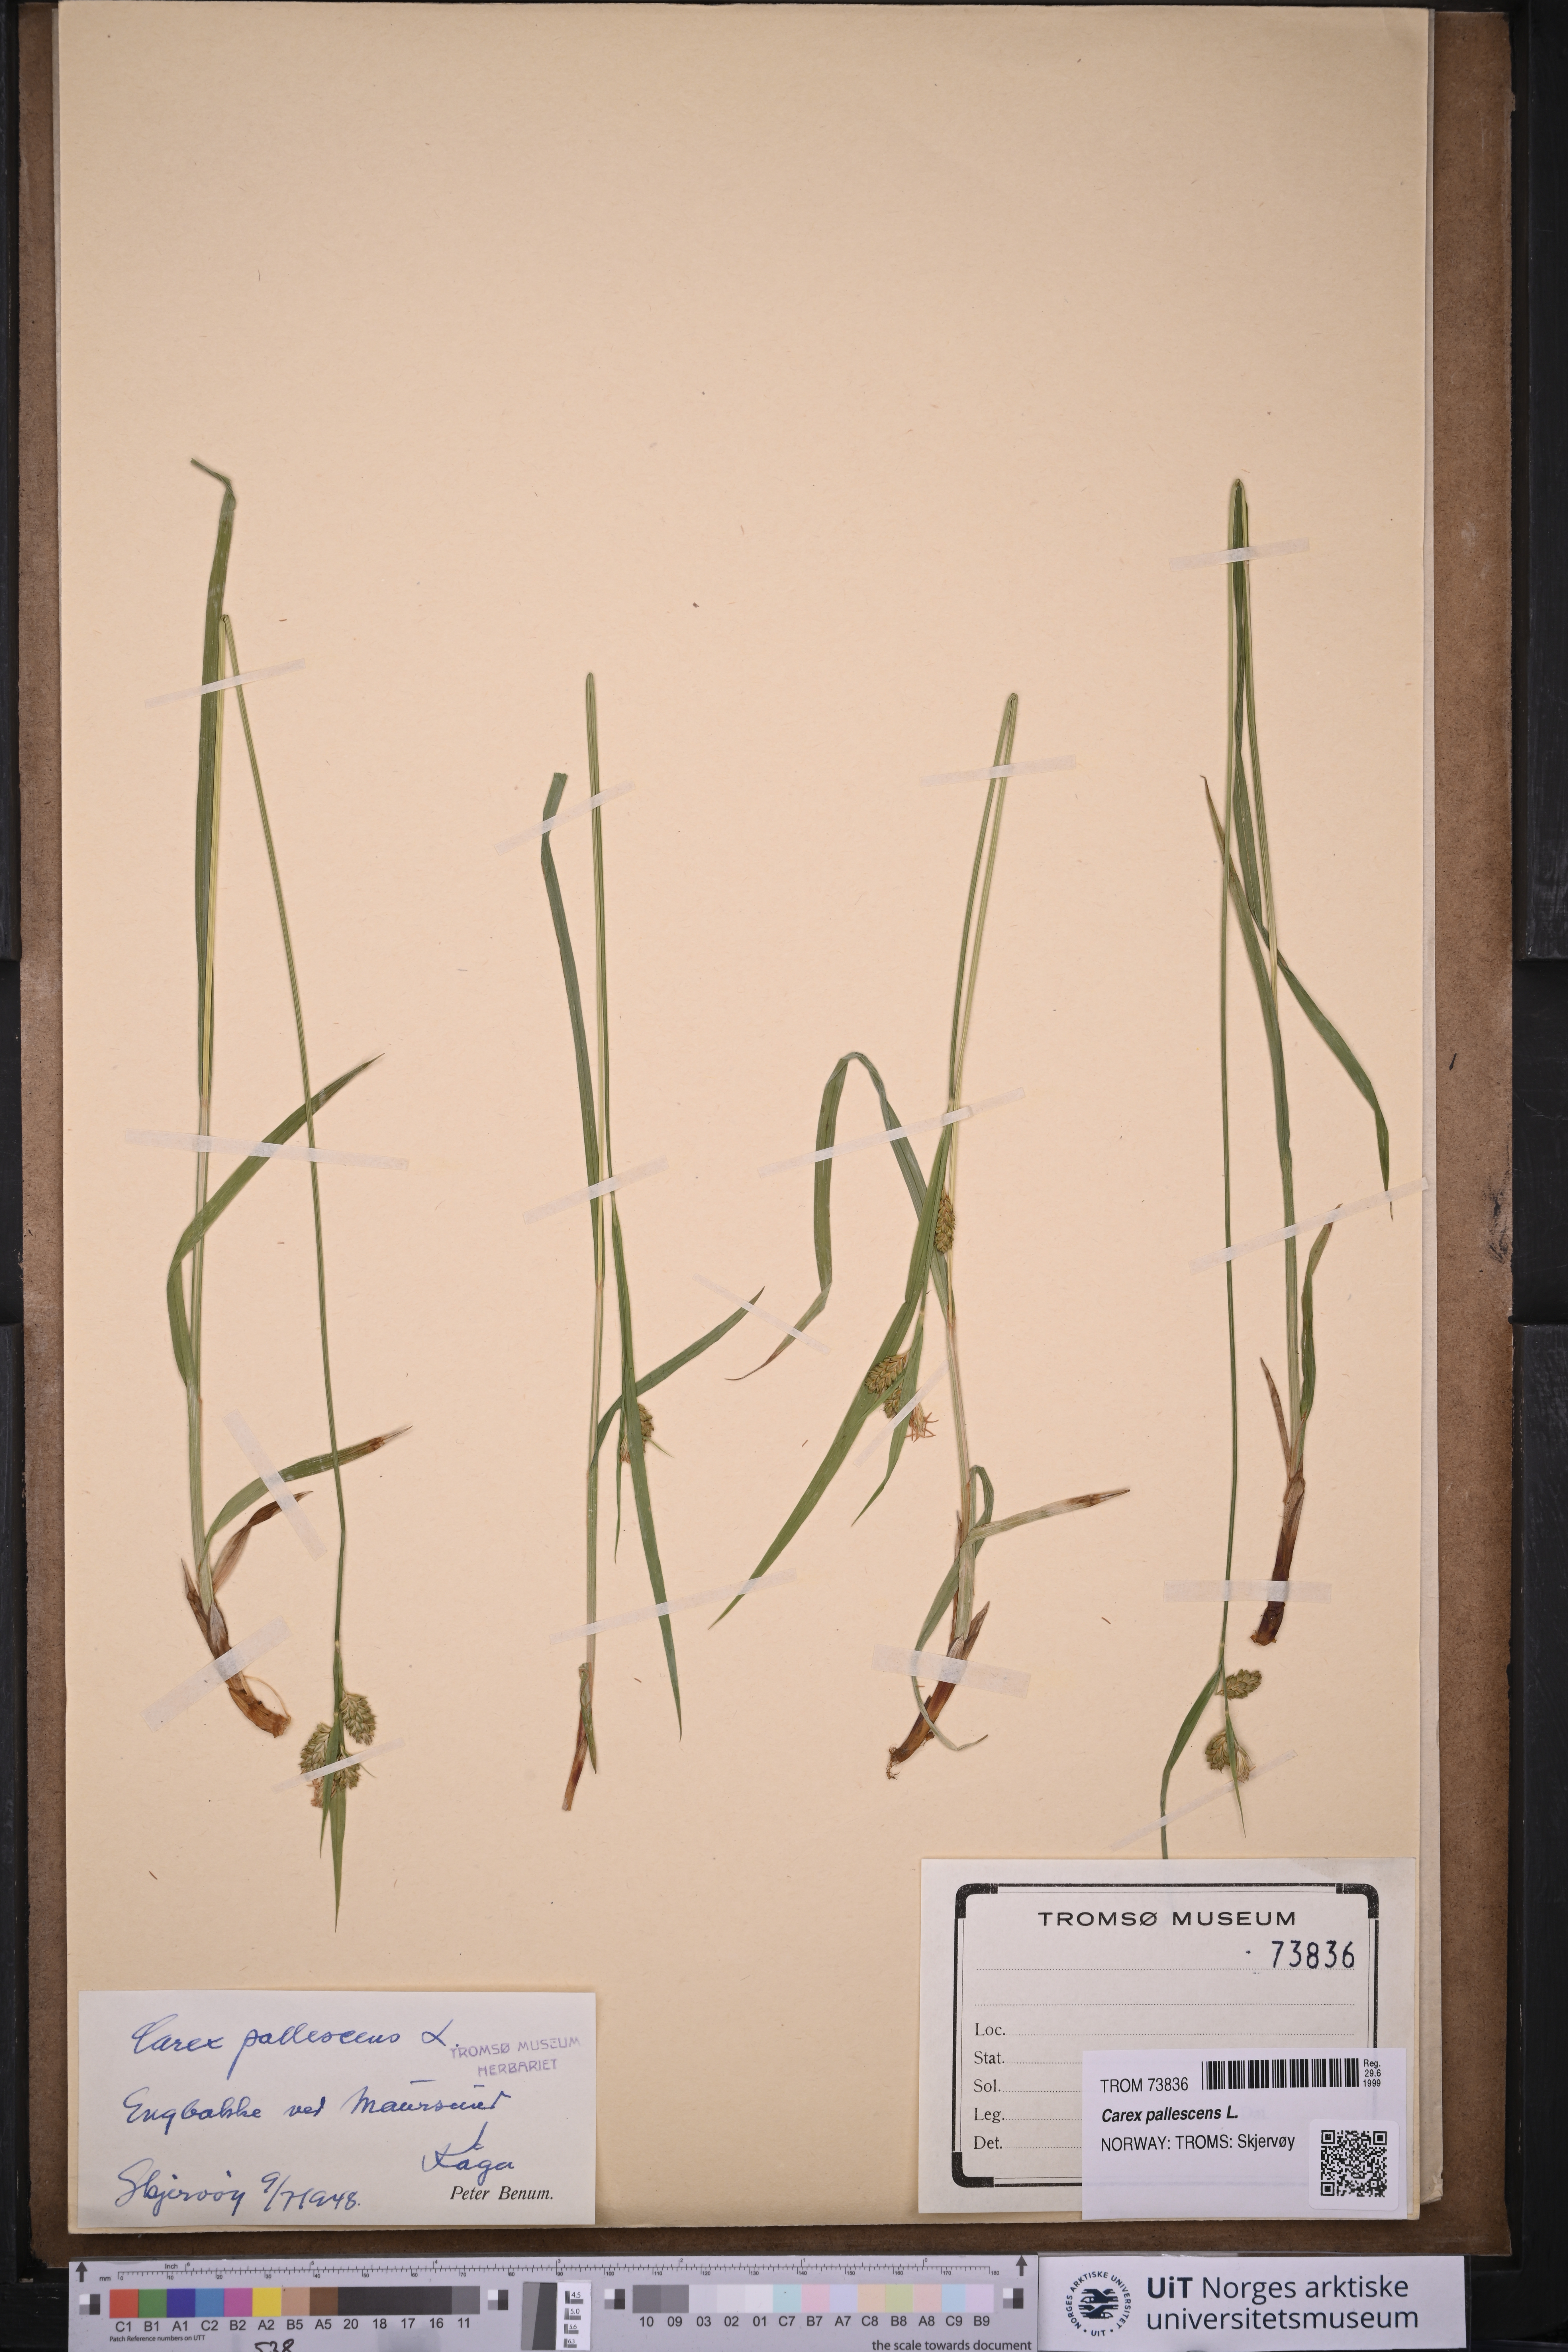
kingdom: Plantae
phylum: Tracheophyta
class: Liliopsida
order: Poales
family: Cyperaceae
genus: Carex
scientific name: Carex pallescens
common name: Pale sedge
